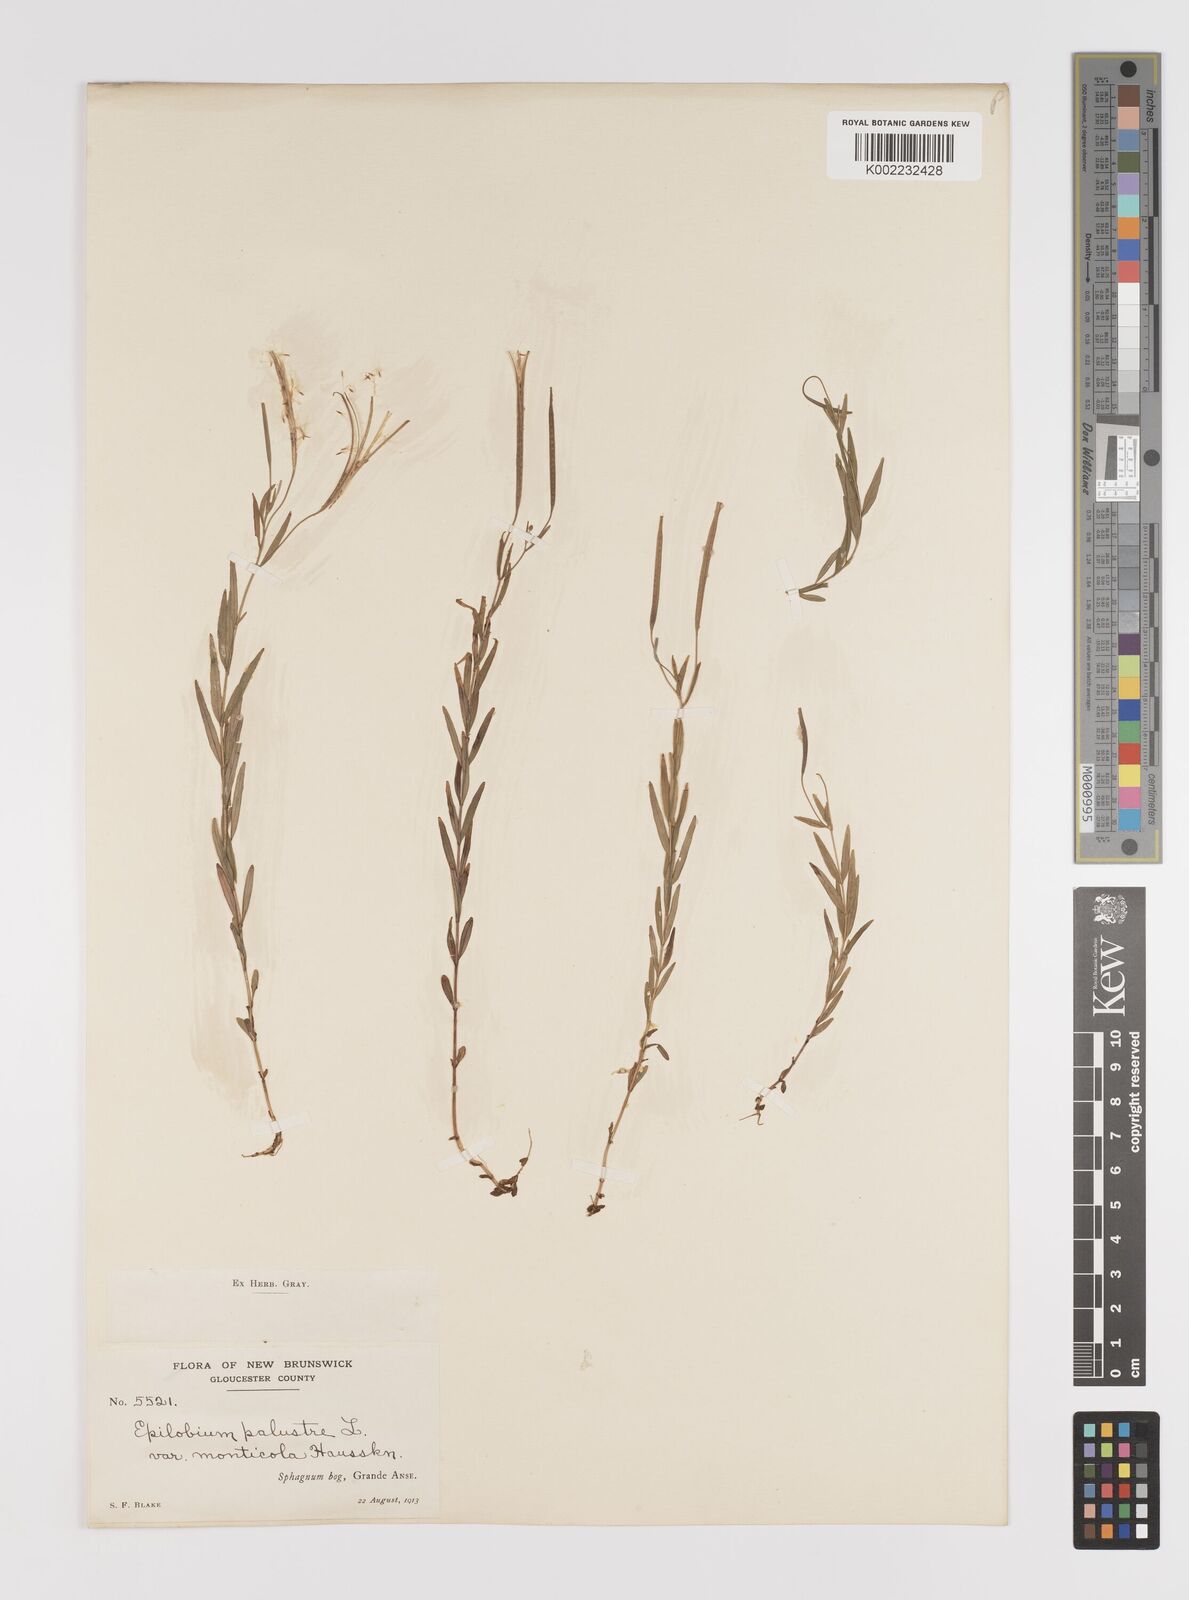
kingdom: Plantae
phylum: Tracheophyta
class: Magnoliopsida
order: Myrtales
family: Onagraceae
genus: Epilobium
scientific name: Epilobium palustre
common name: Marsh willowherb
